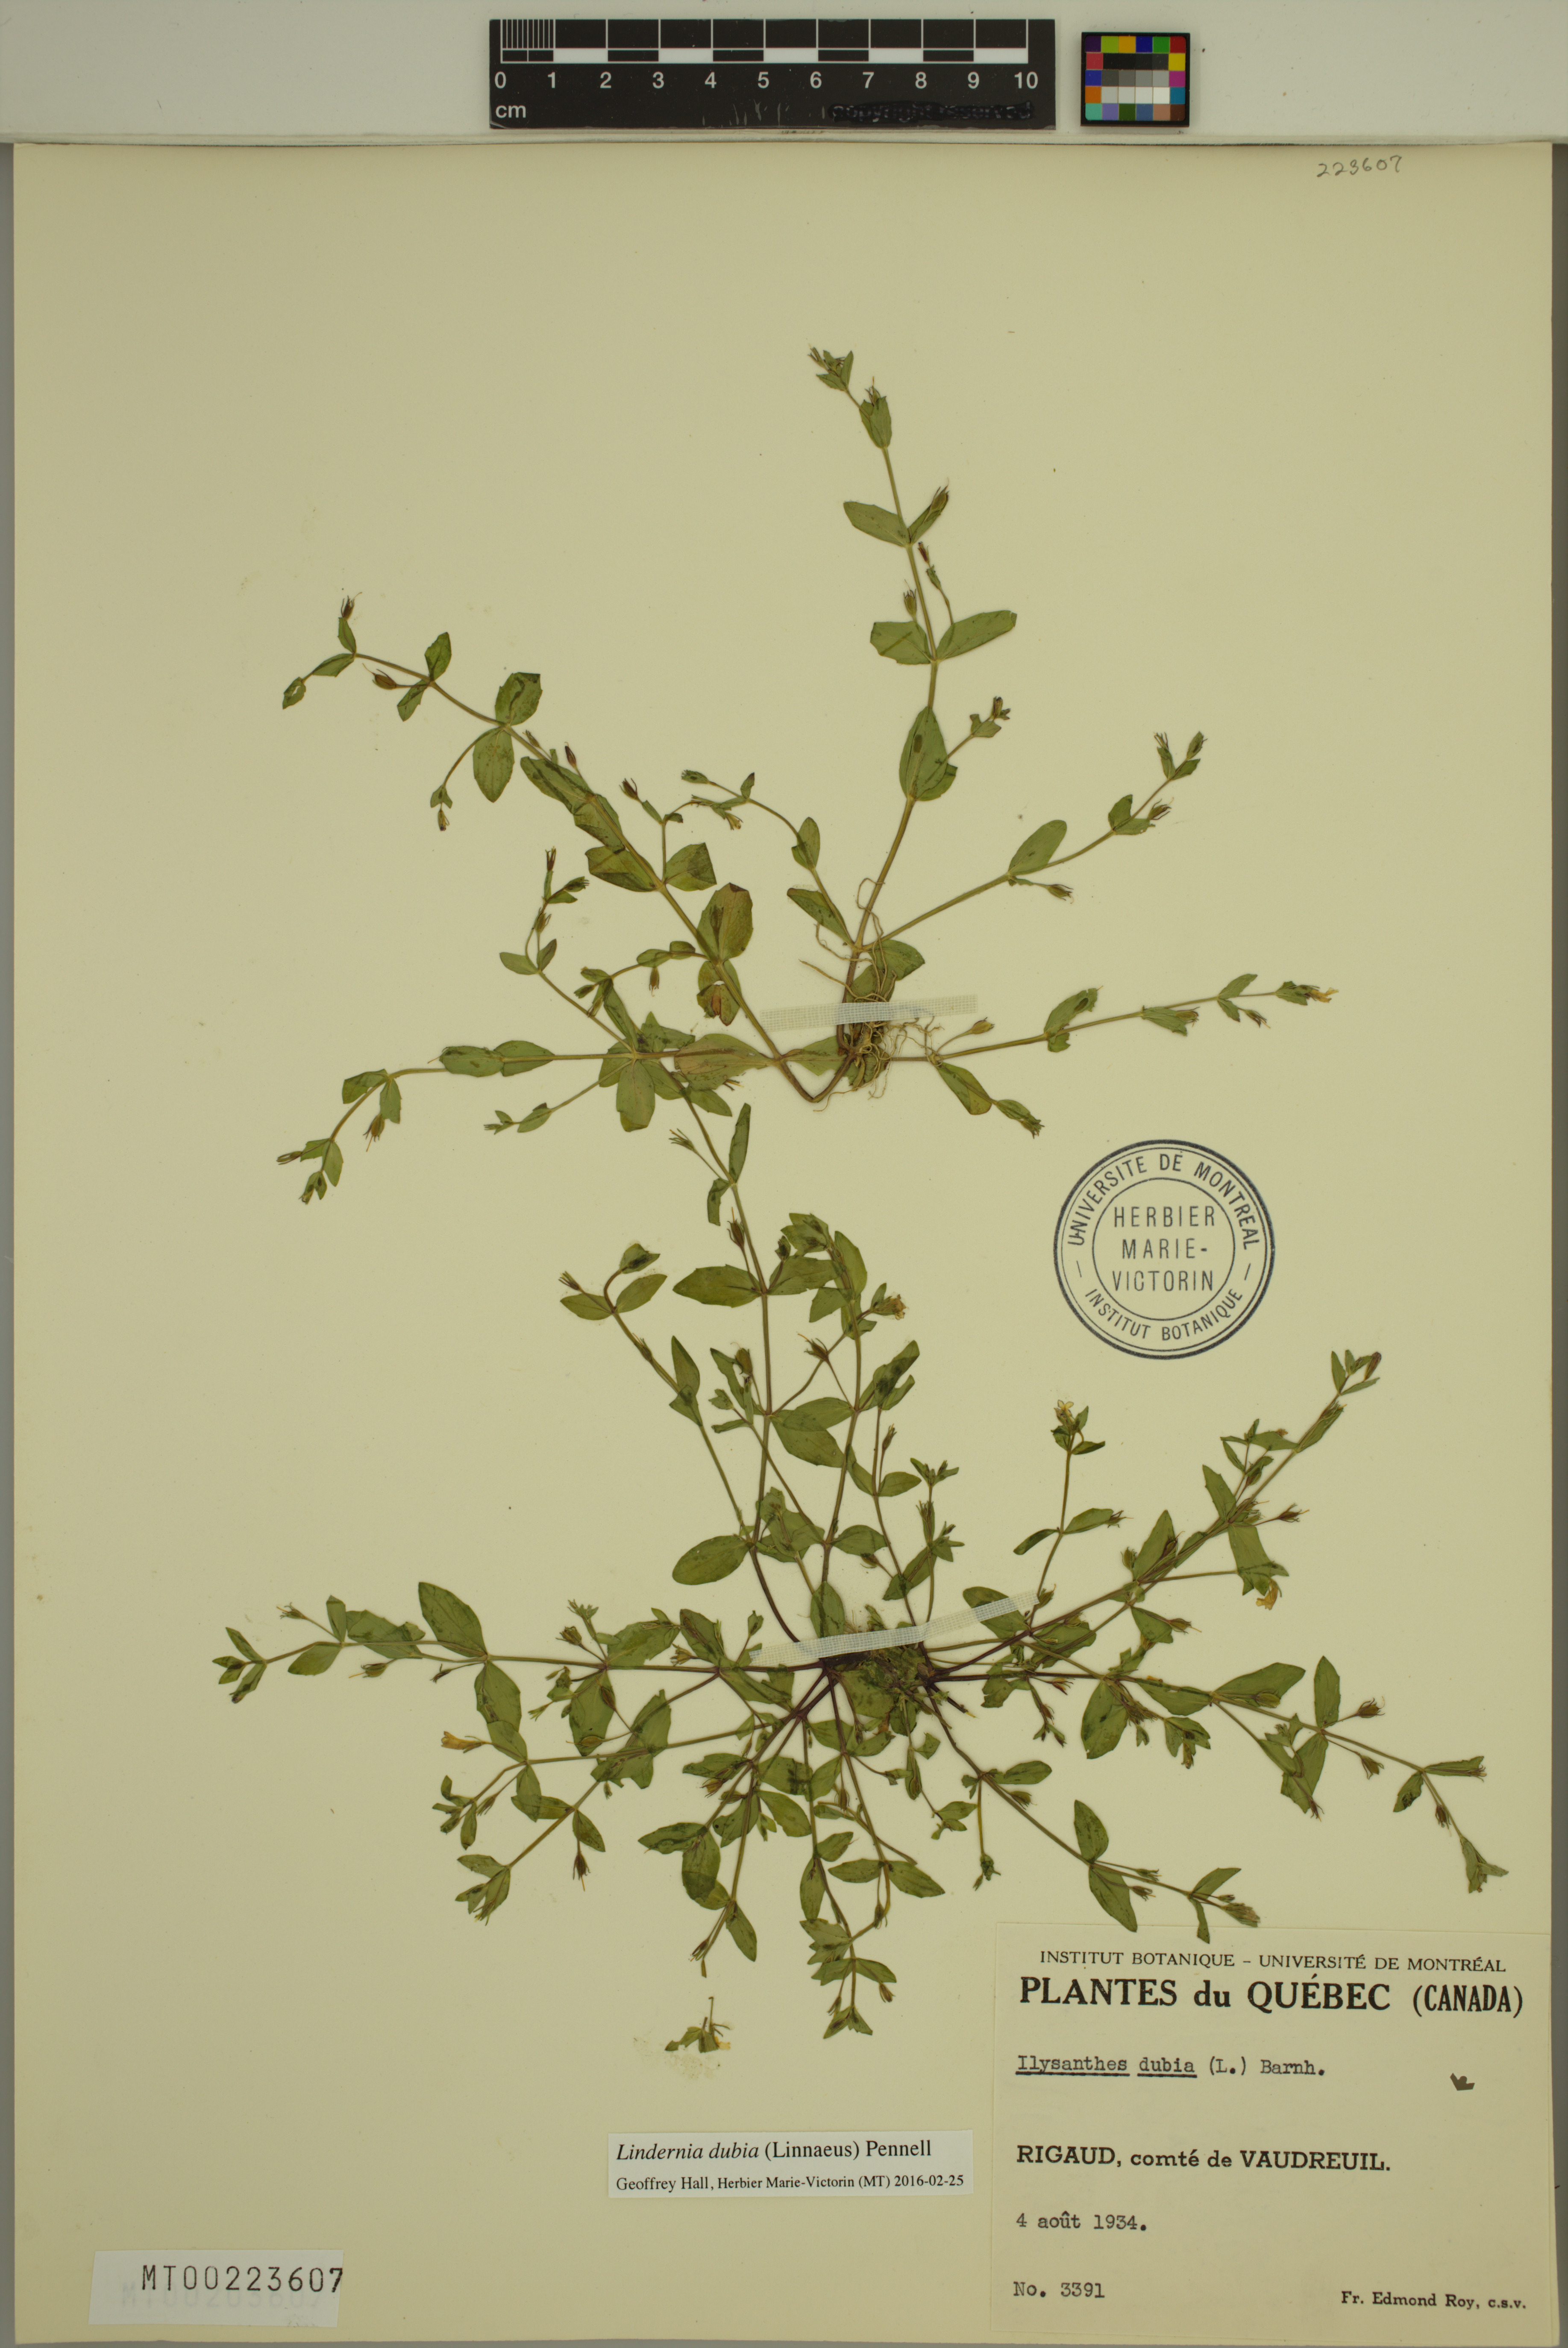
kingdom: Plantae
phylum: Tracheophyta
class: Magnoliopsida
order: Lamiales
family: Linderniaceae
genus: Lindernia
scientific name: Lindernia dubia
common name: Annual false pimpernel
